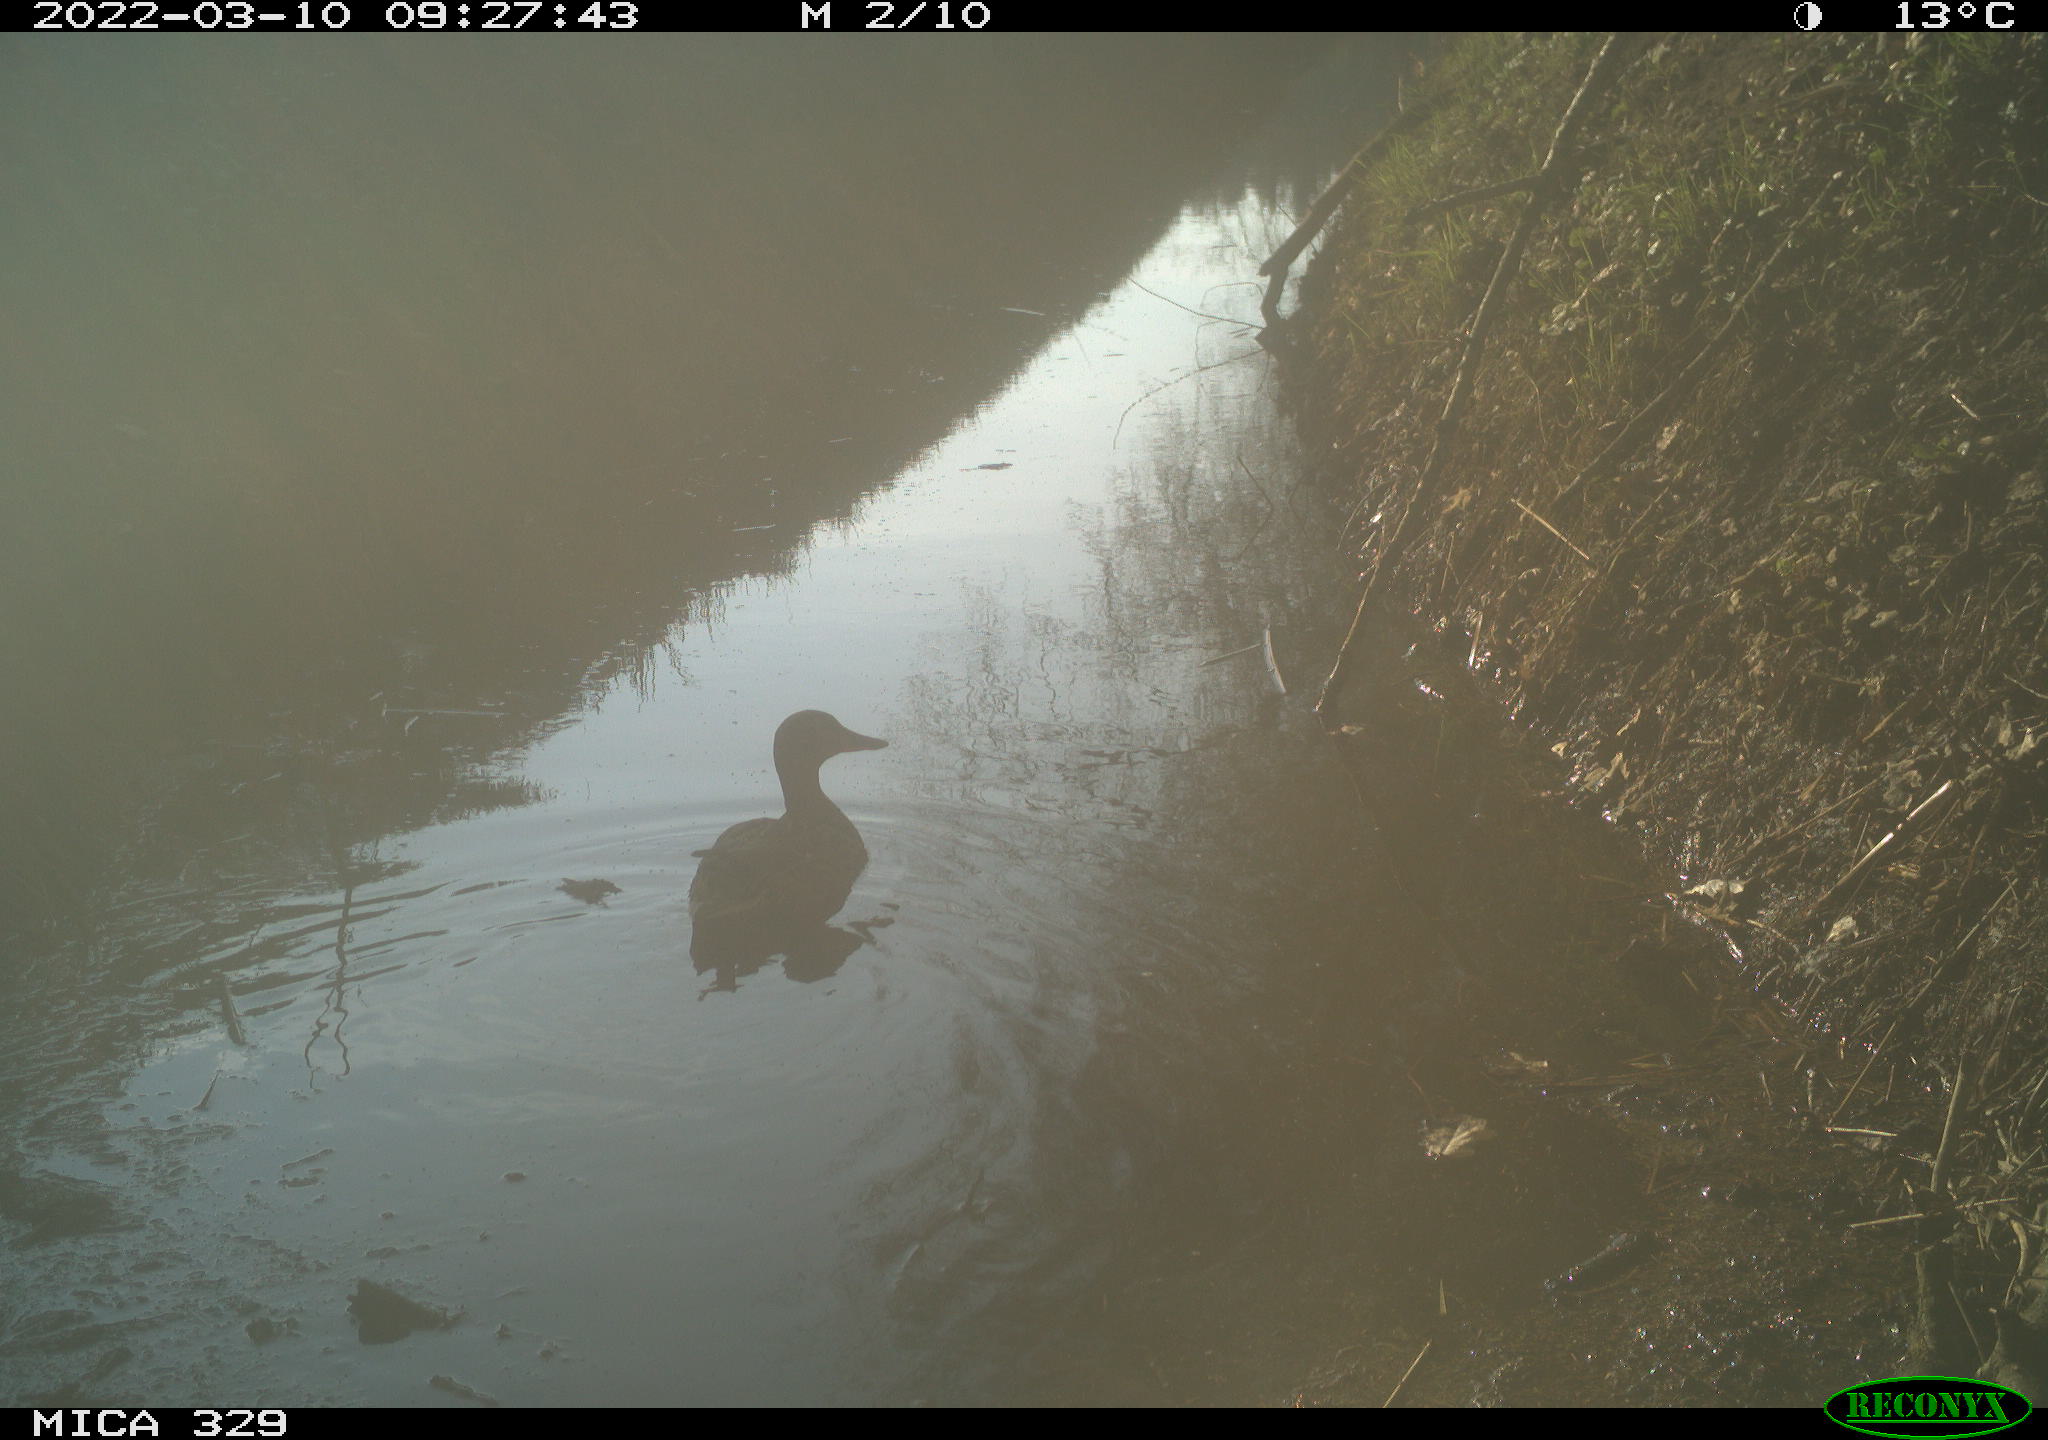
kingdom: Animalia
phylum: Chordata
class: Aves
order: Anseriformes
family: Anatidae
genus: Anas
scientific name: Anas platyrhynchos
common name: Mallard
